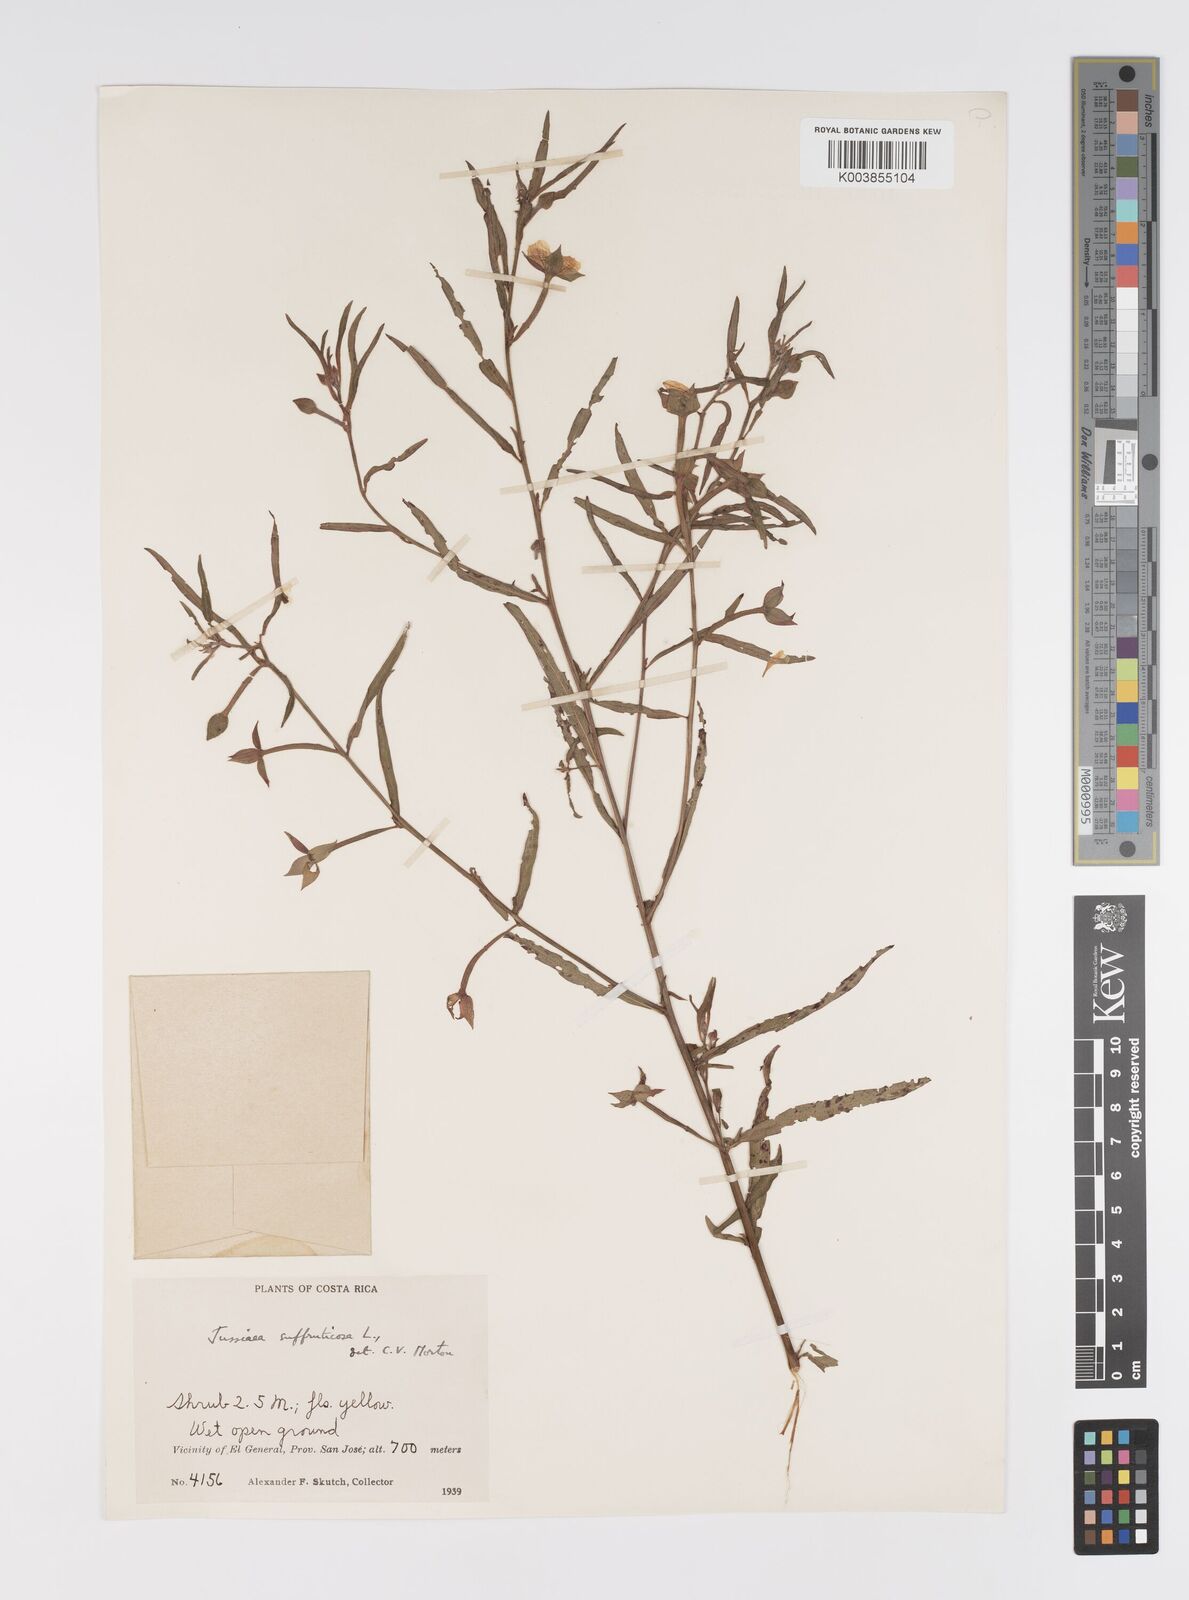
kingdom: Plantae
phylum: Tracheophyta
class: Magnoliopsida
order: Myrtales
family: Onagraceae
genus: Ludwigia
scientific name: Ludwigia octovalvis
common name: Water-primrose
